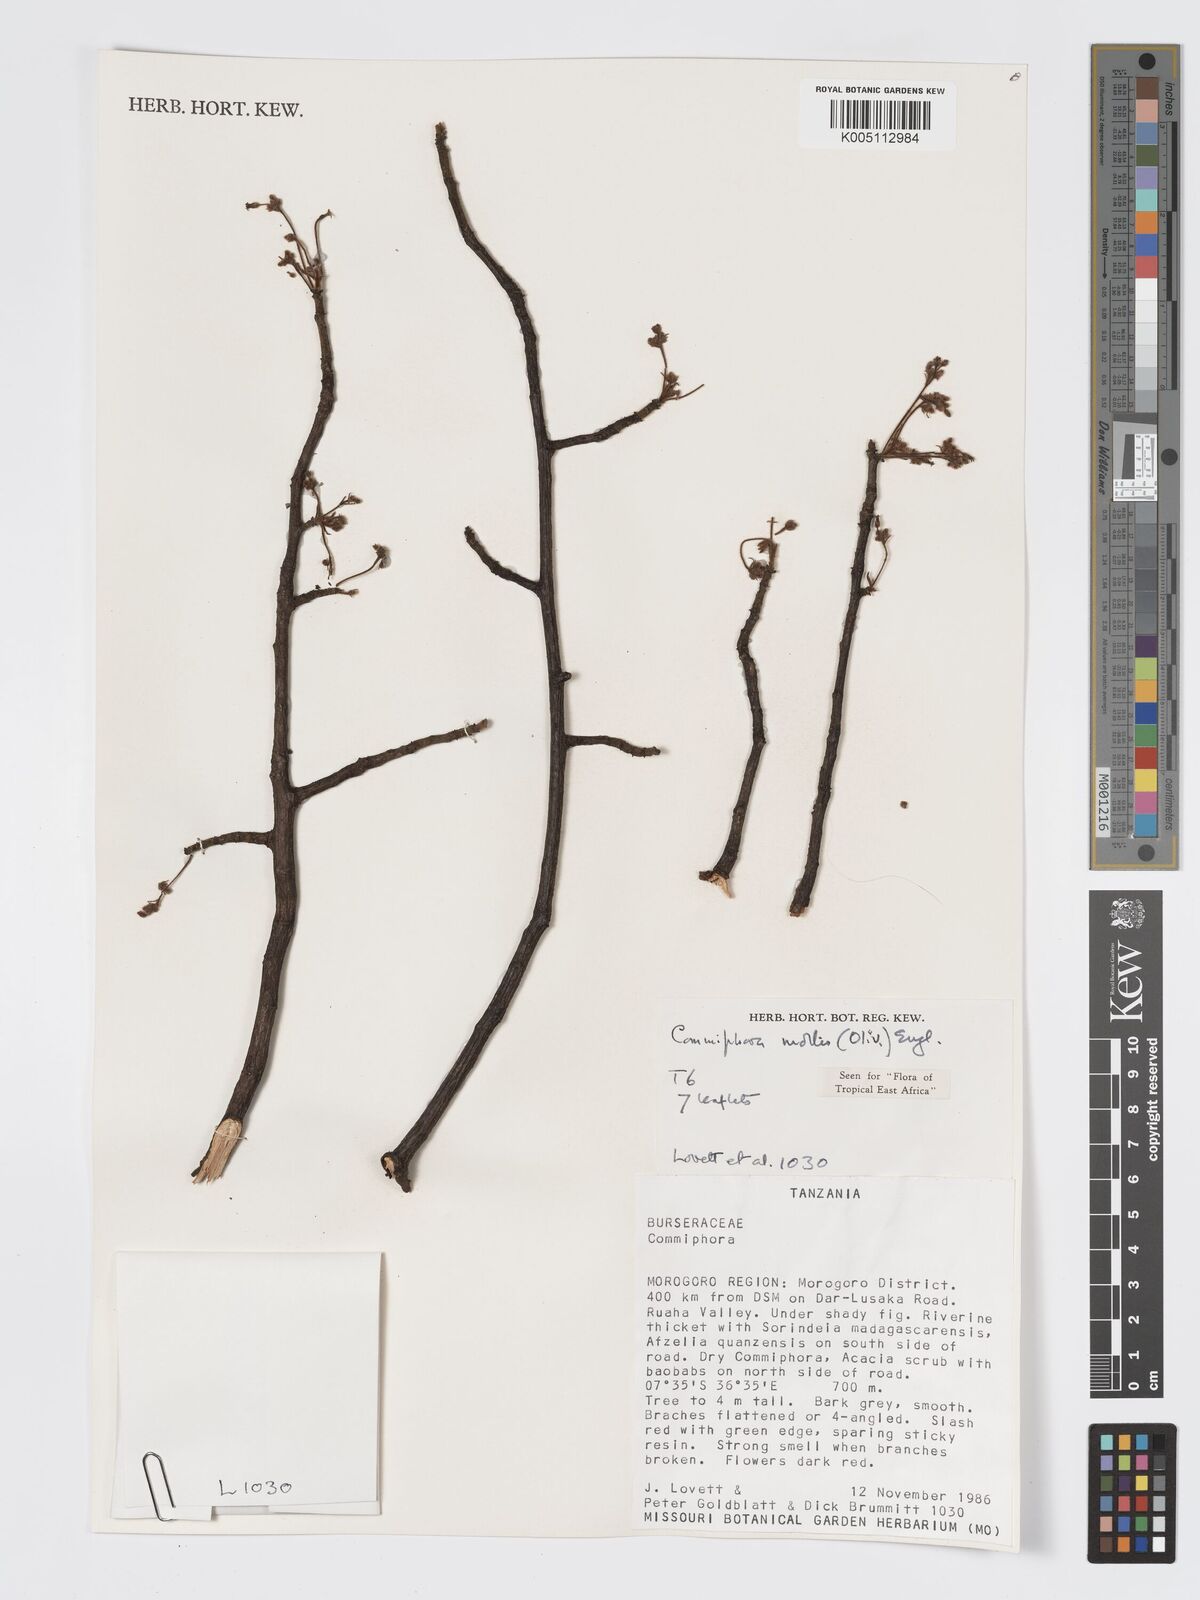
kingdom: Plantae
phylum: Tracheophyta
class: Magnoliopsida
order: Sapindales
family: Burseraceae
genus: Commiphora
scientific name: Commiphora
